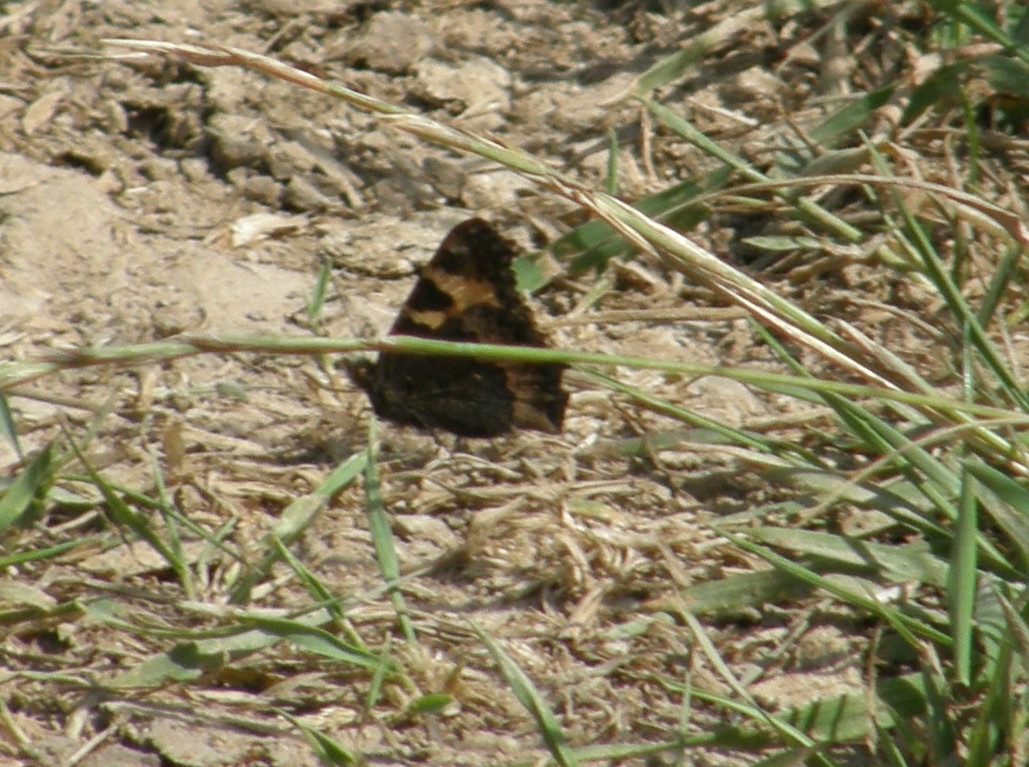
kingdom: Animalia
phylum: Arthropoda
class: Insecta
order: Lepidoptera
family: Nymphalidae
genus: Aglais
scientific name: Aglais urticae
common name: Nældens takvinge
